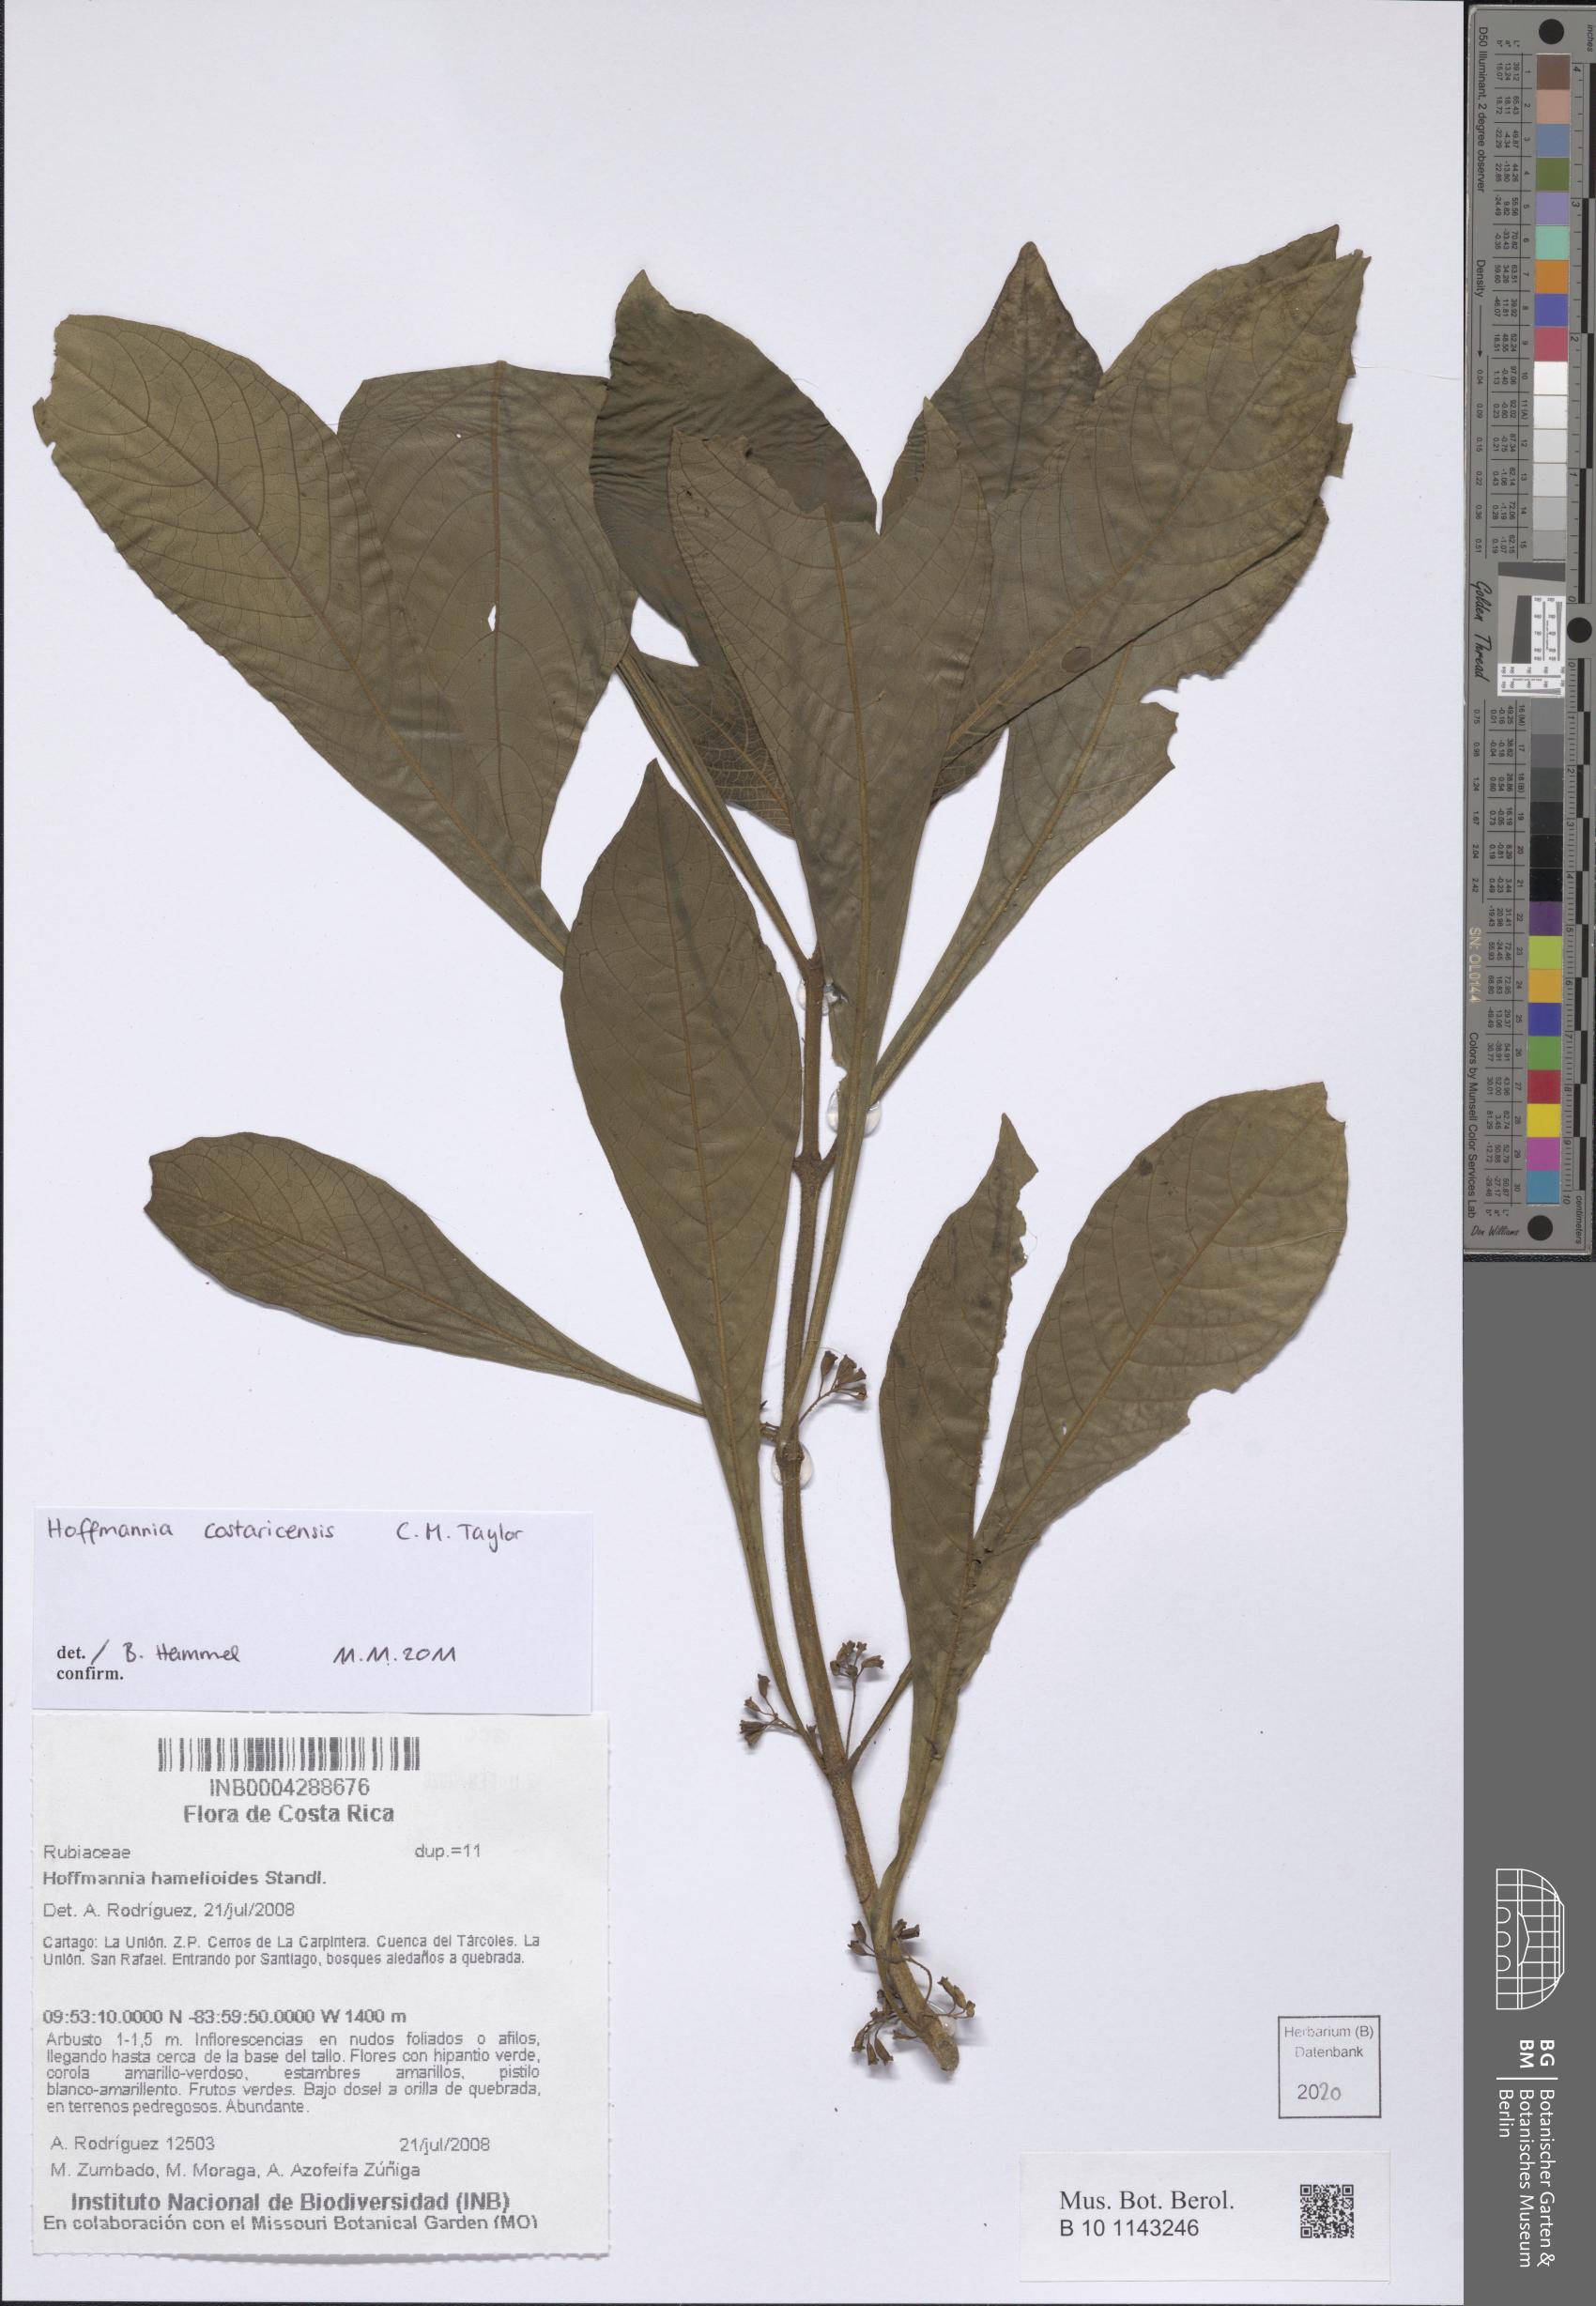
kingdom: Plantae
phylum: Tracheophyta
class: Magnoliopsida
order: Gentianales
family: Rubiaceae
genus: Hoffmannia
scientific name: Hoffmannia costaricensis
